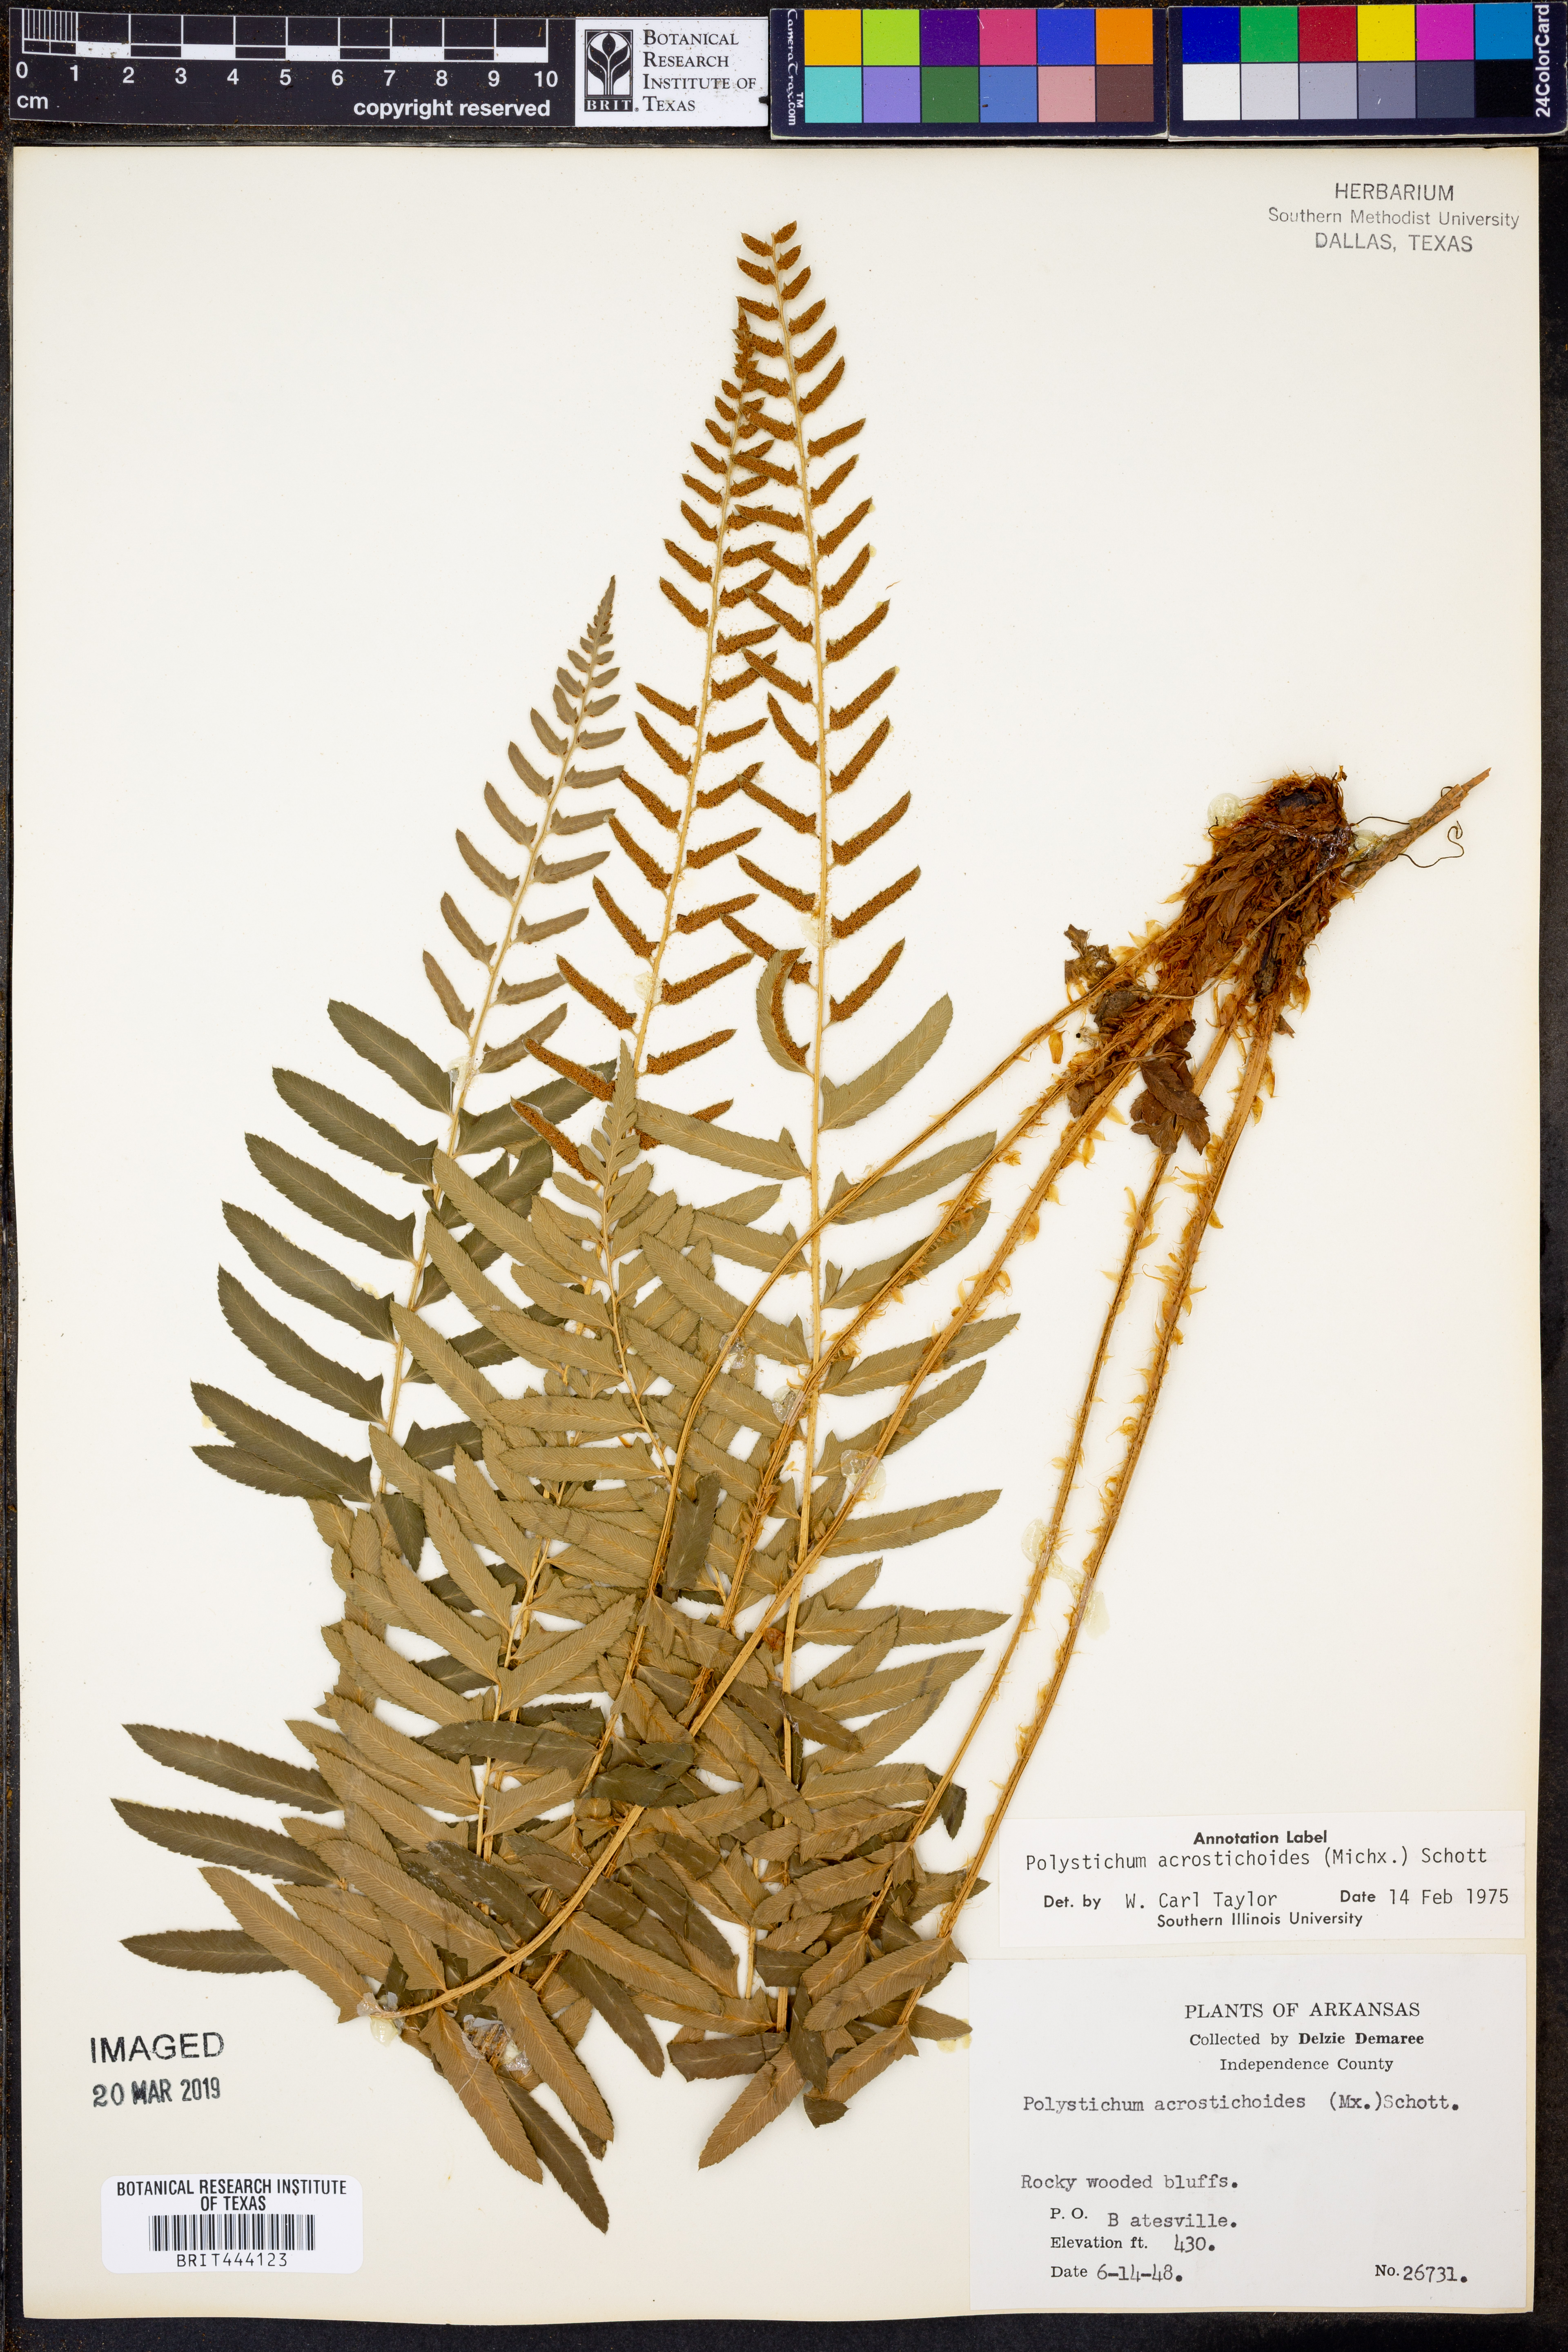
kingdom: Plantae
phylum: Tracheophyta
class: Polypodiopsida
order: Polypodiales
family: Dryopteridaceae
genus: Polystichum
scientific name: Polystichum acrostichoides
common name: Christmas fern
